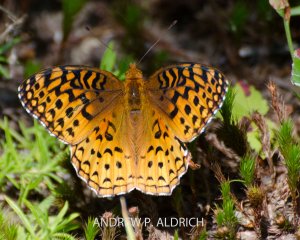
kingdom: Animalia
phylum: Arthropoda
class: Insecta
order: Lepidoptera
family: Nymphalidae
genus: Speyeria
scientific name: Speyeria aphrodite
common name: Aphrodite Fritillary
